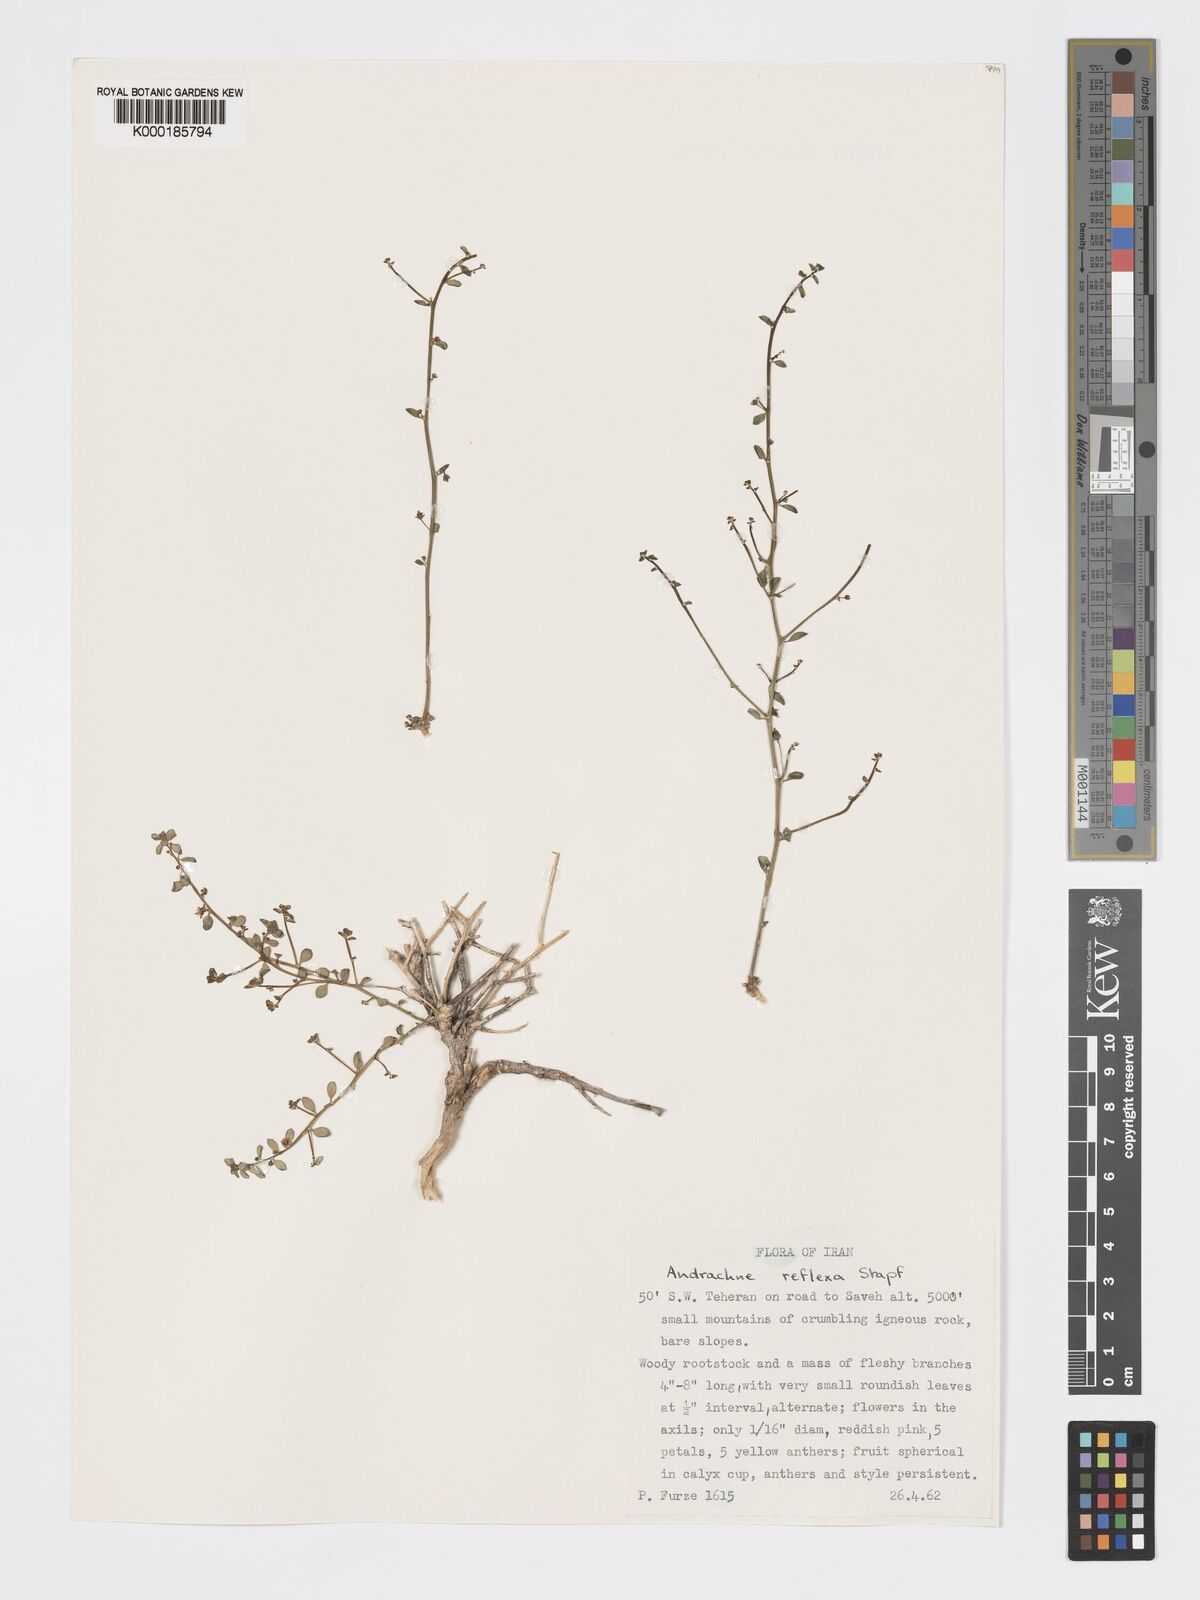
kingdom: Plantae
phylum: Tracheophyta
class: Magnoliopsida
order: Malpighiales
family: Phyllanthaceae
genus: Andrachne
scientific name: Andrachne reflexa
